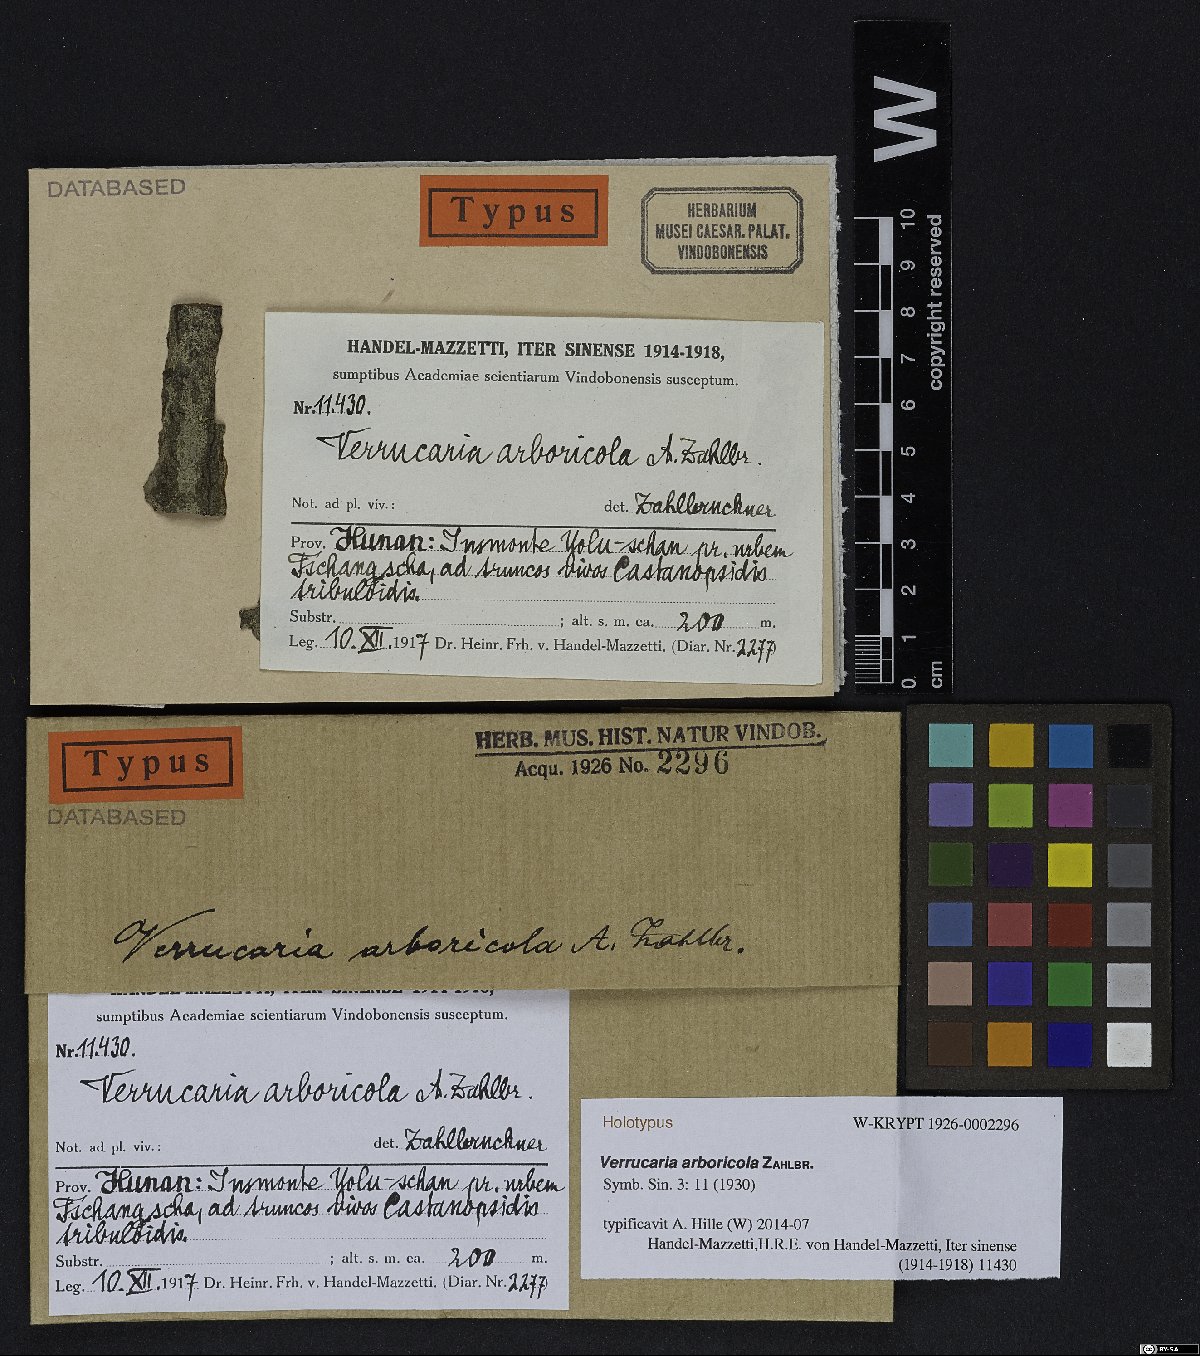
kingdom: Fungi
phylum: Ascomycota
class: Eurotiomycetes
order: Verrucariales
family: Verrucariaceae
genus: Verrucaria
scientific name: Verrucaria
